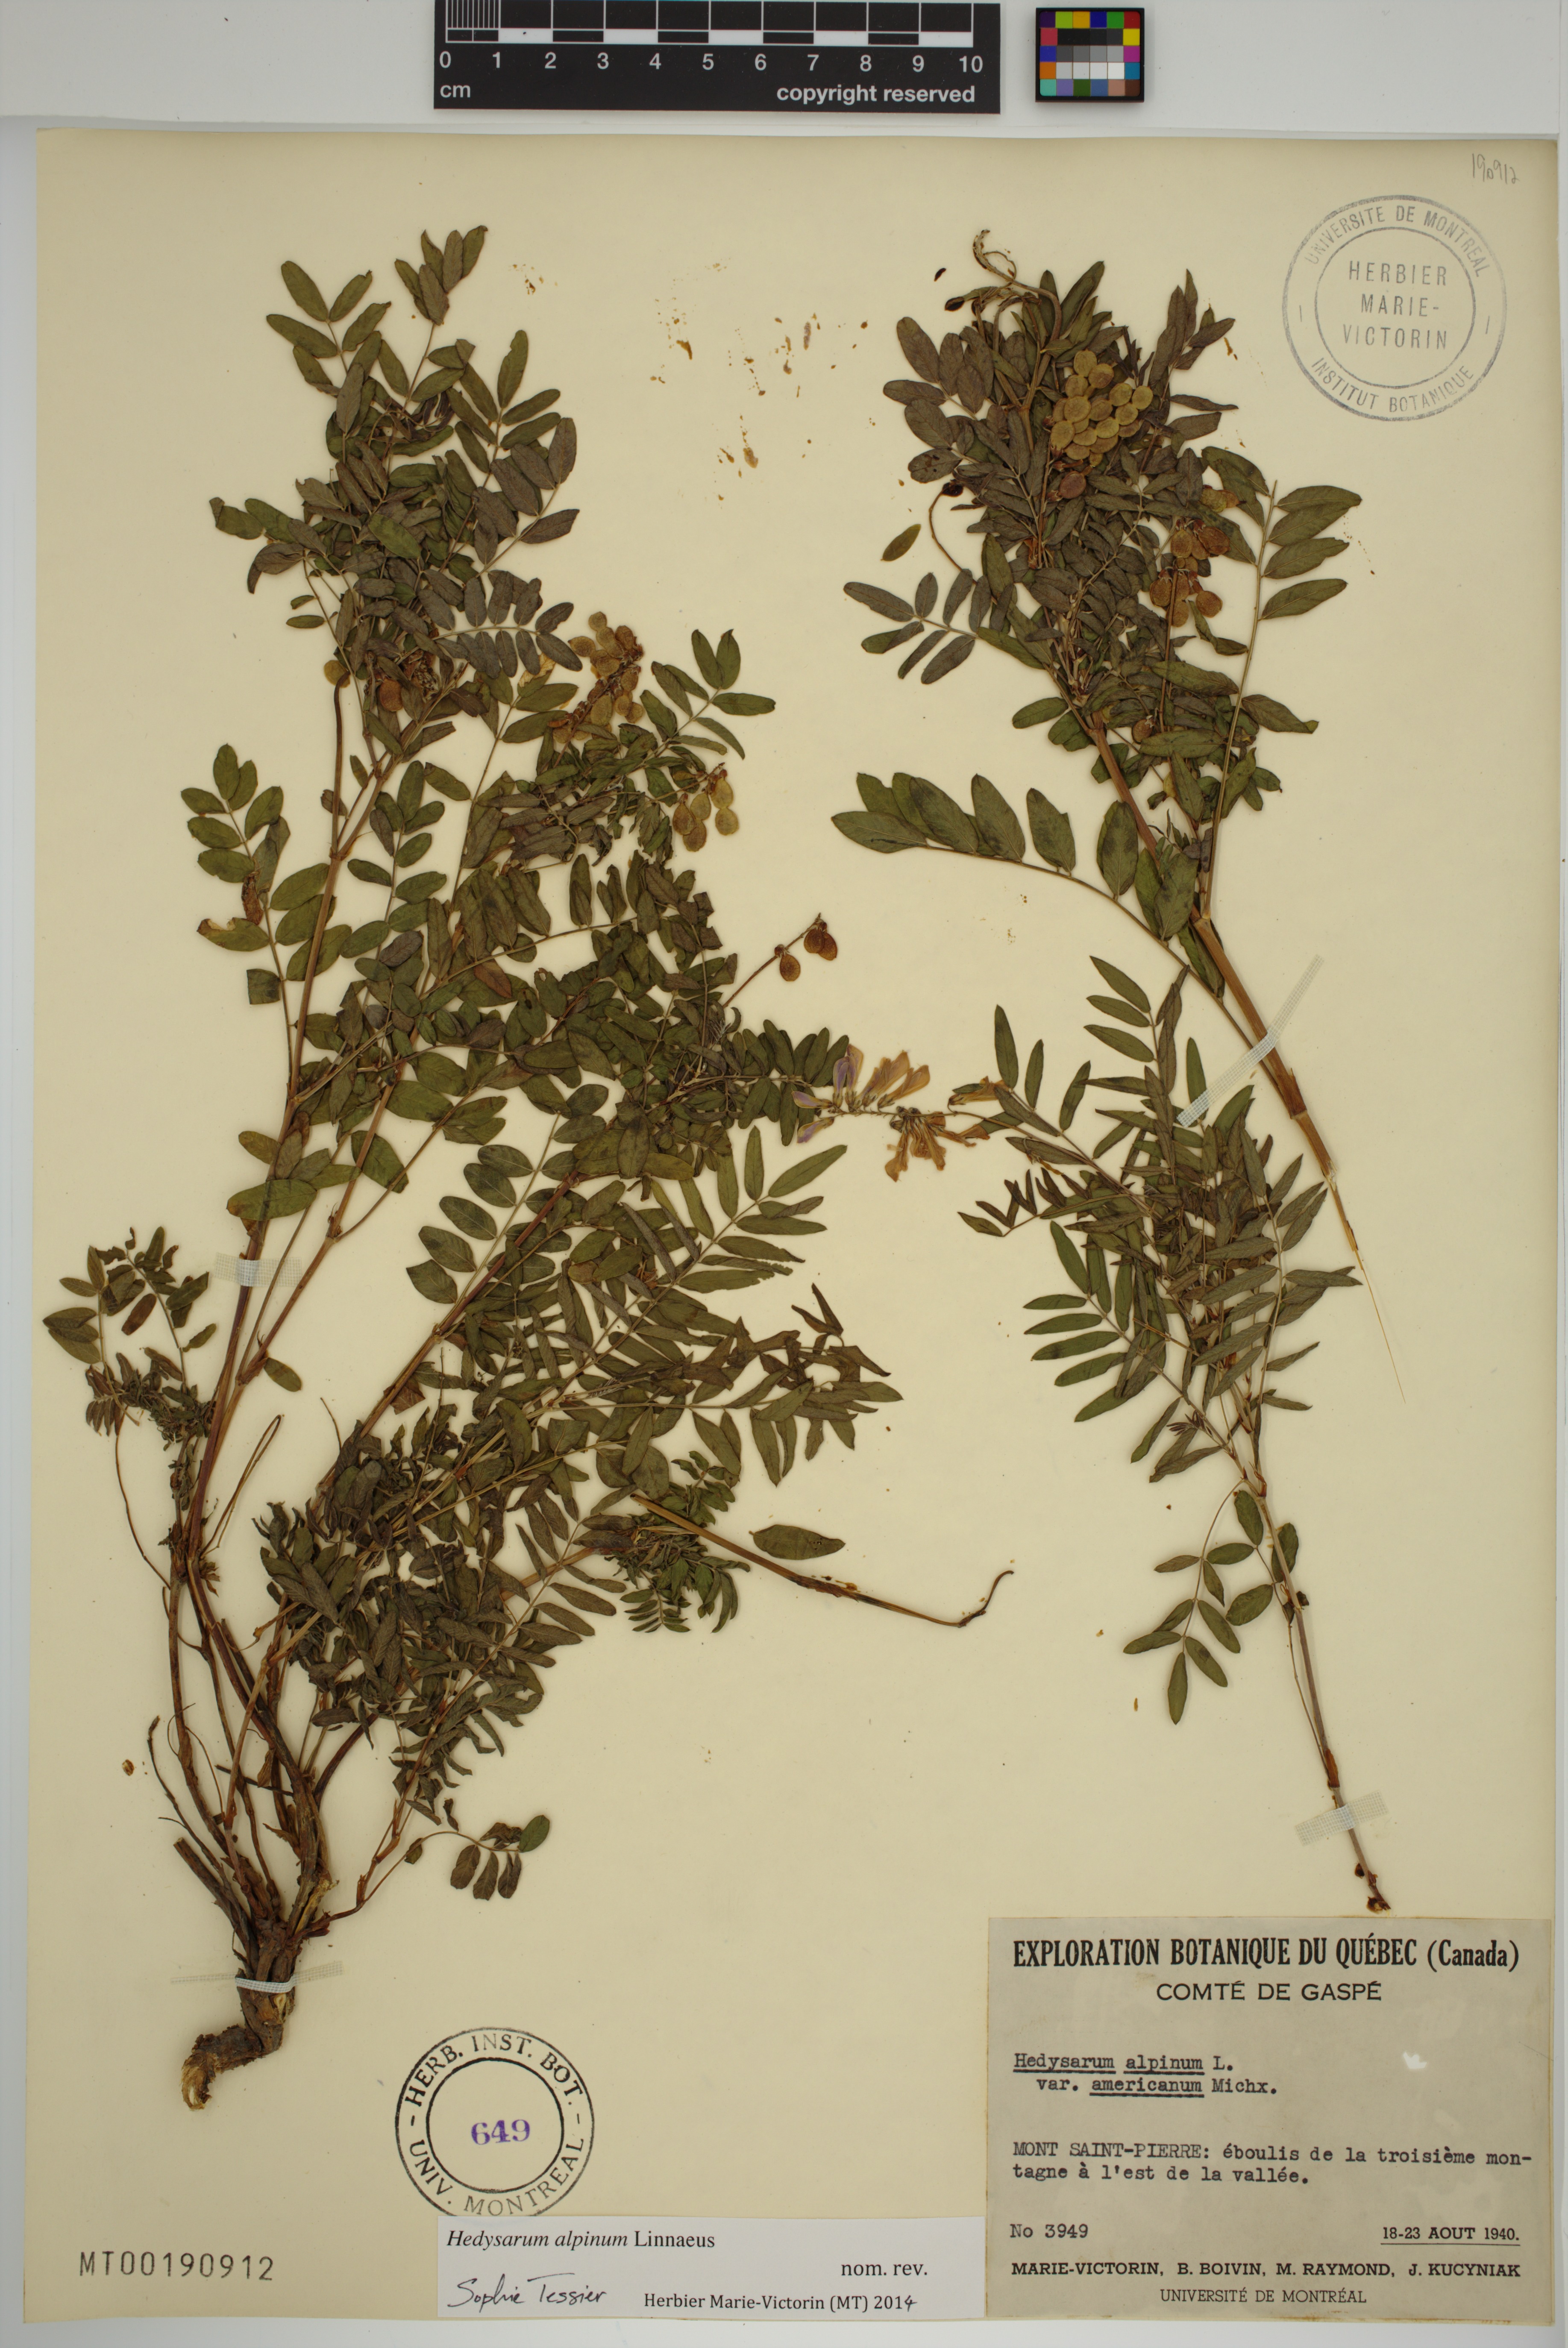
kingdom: Plantae
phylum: Tracheophyta
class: Magnoliopsida
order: Fabales
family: Fabaceae
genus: Hedysarum
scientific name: Hedysarum alpinum
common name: Alpine sweet-vetch
